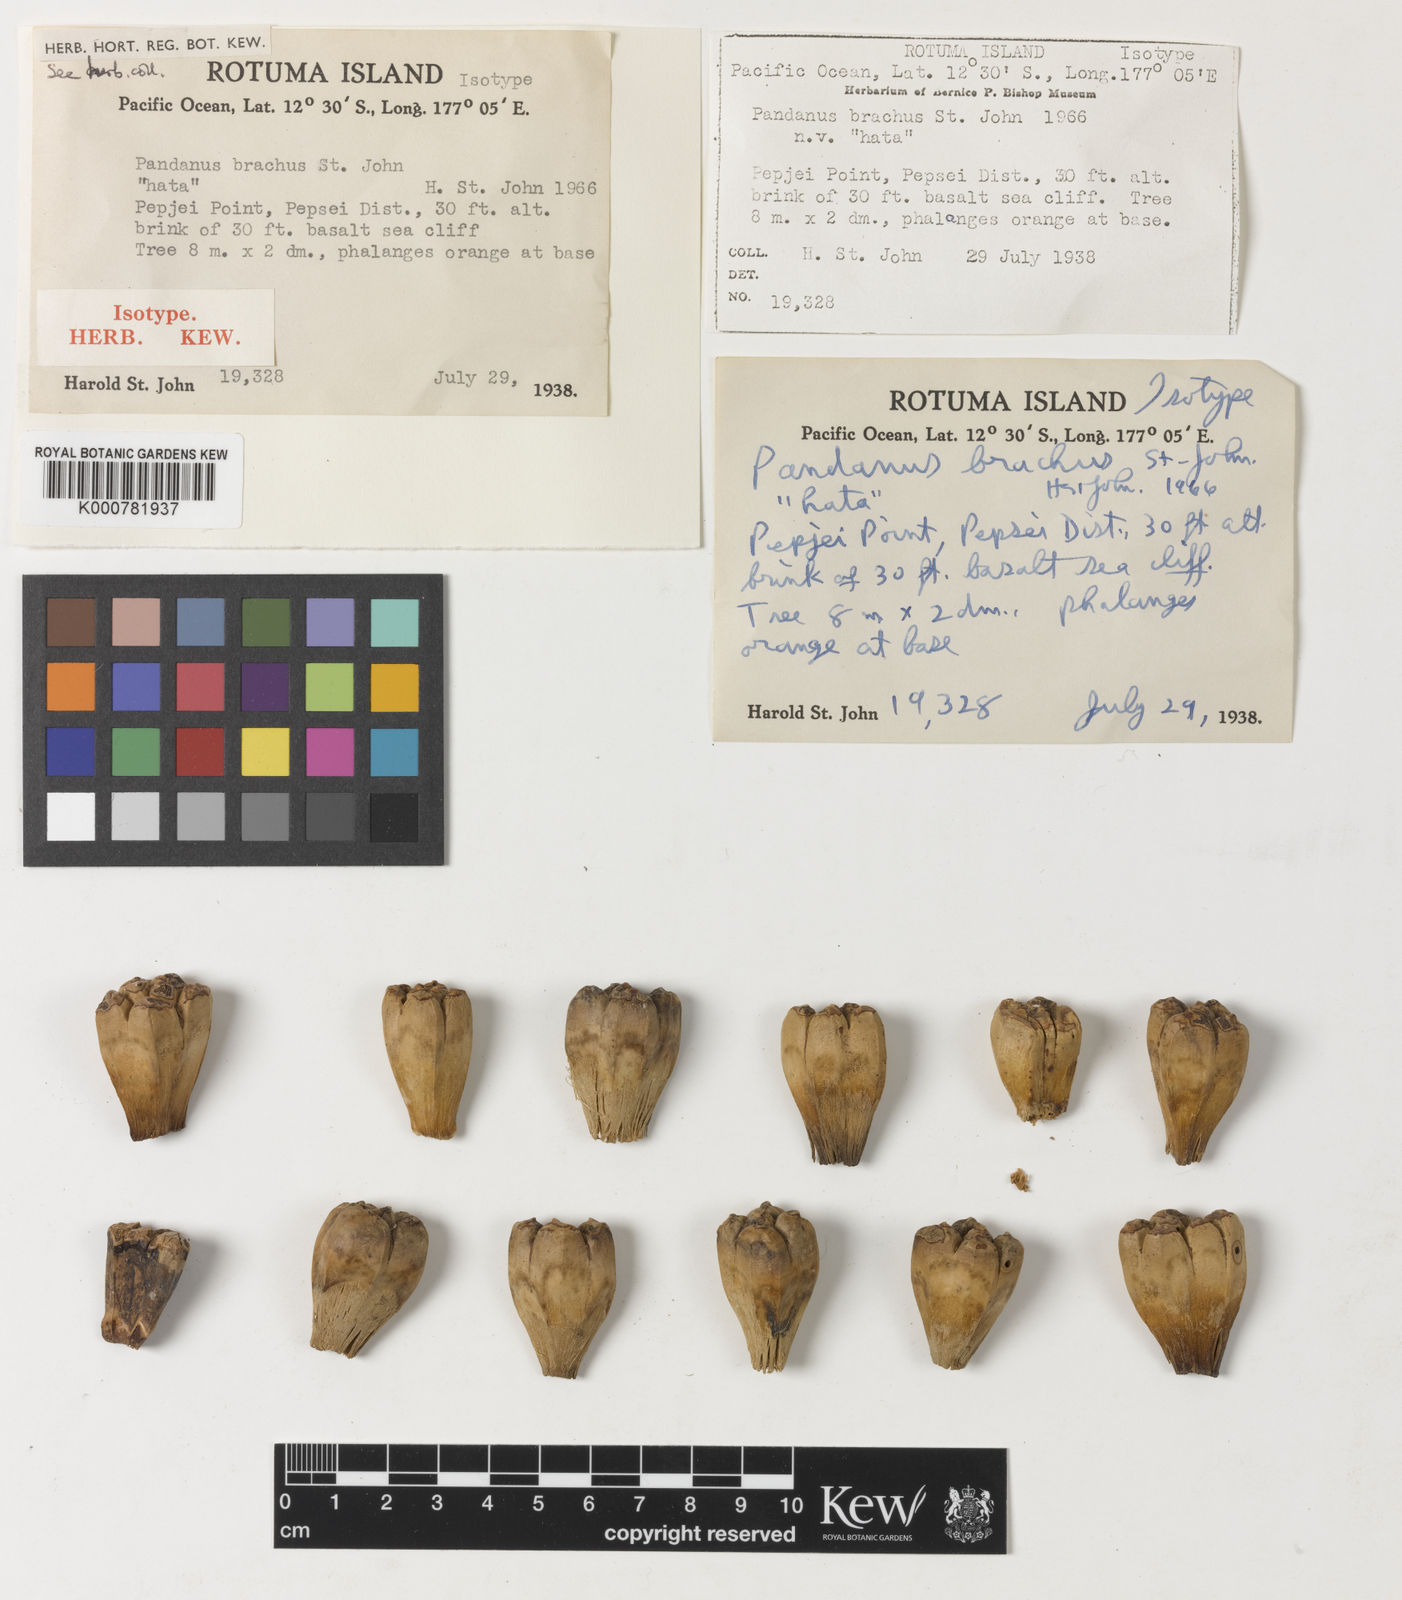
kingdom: Plantae
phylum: Tracheophyta
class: Liliopsida
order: Pandanales
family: Pandanaceae
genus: Pandanus
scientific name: Pandanus brachus
